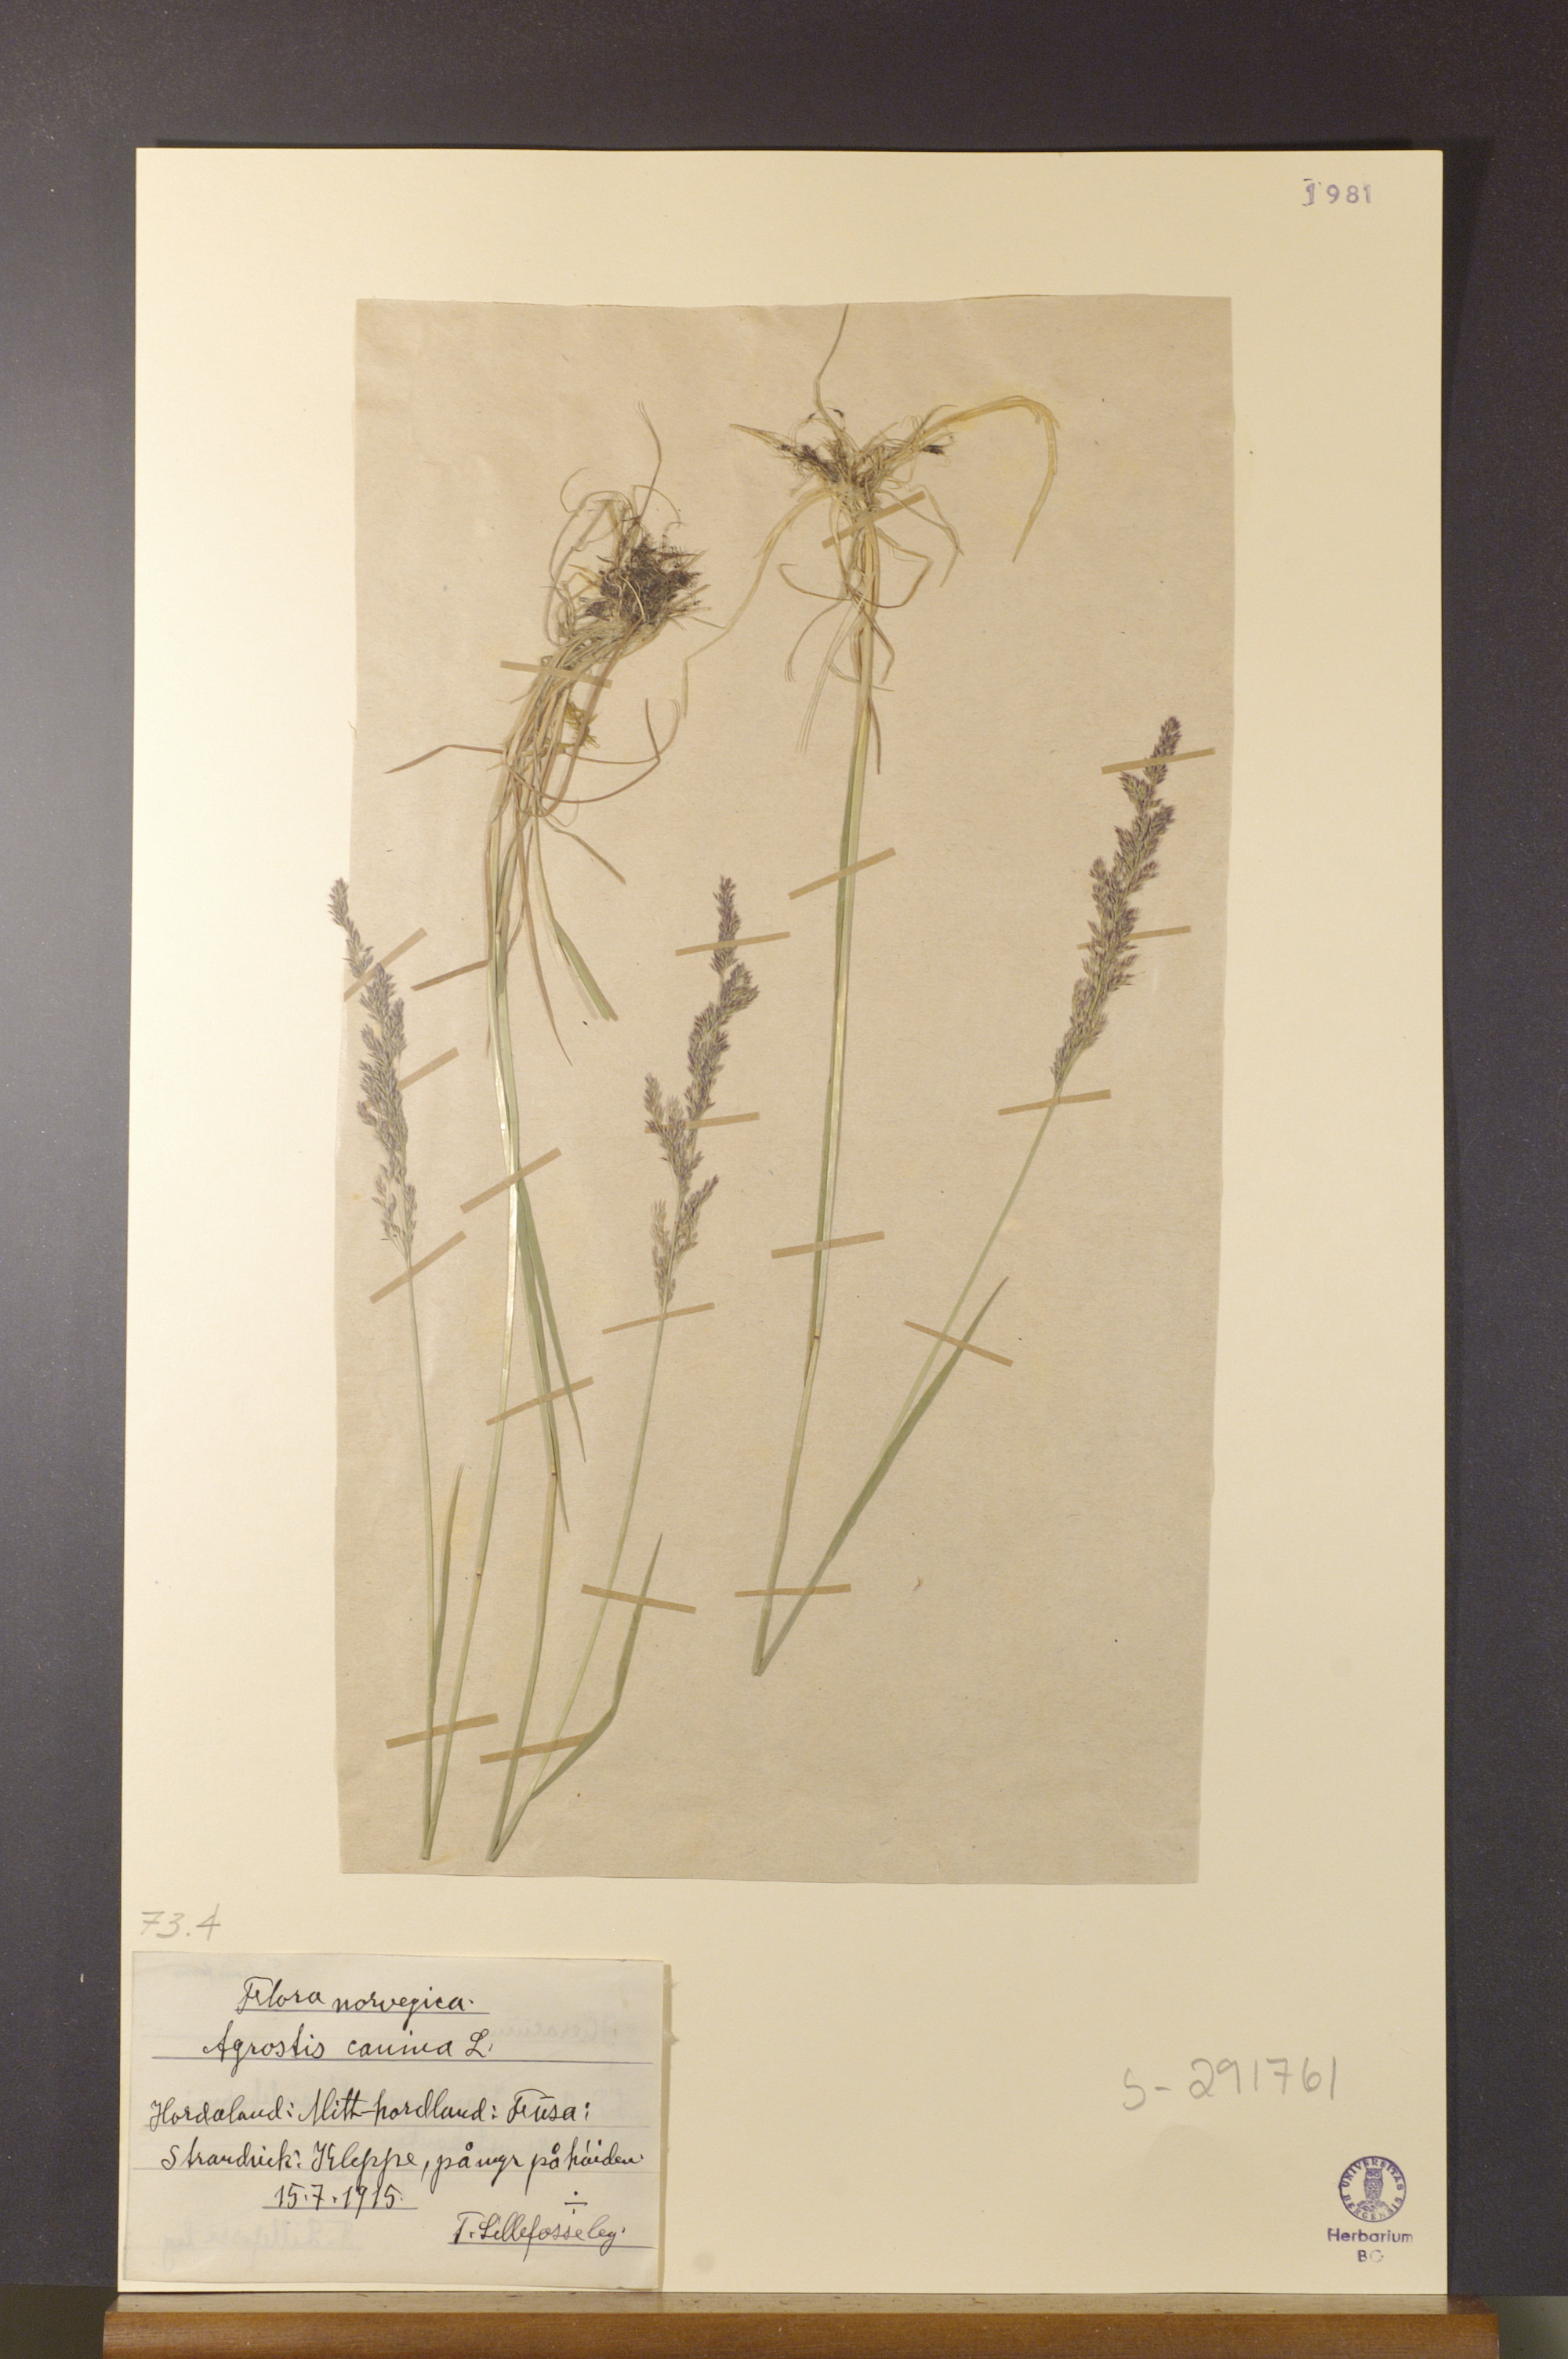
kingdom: Plantae
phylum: Tracheophyta
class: Liliopsida
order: Poales
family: Poaceae
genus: Agrostis
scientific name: Agrostis canina
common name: Velvet bent
